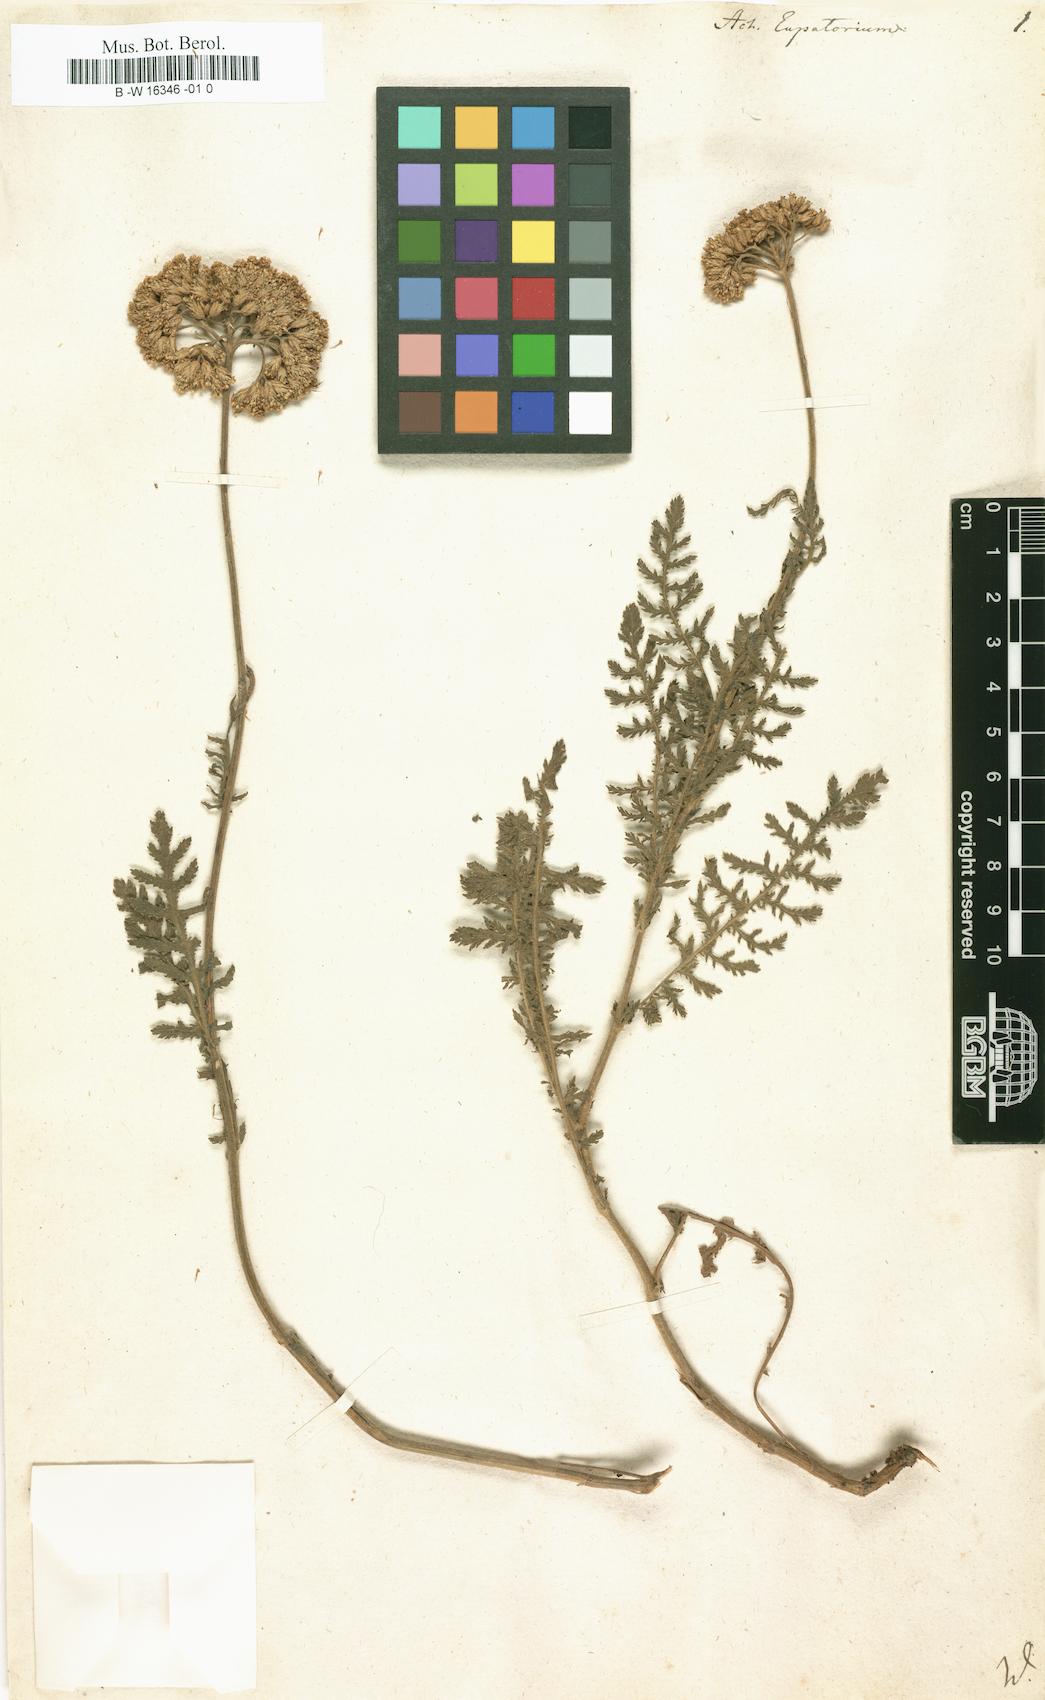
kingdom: Plantae
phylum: Tracheophyta
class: Magnoliopsida
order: Asterales
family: Asteraceae
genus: Achillea
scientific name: Achillea filipendulina
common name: Fernleaf yarrow
